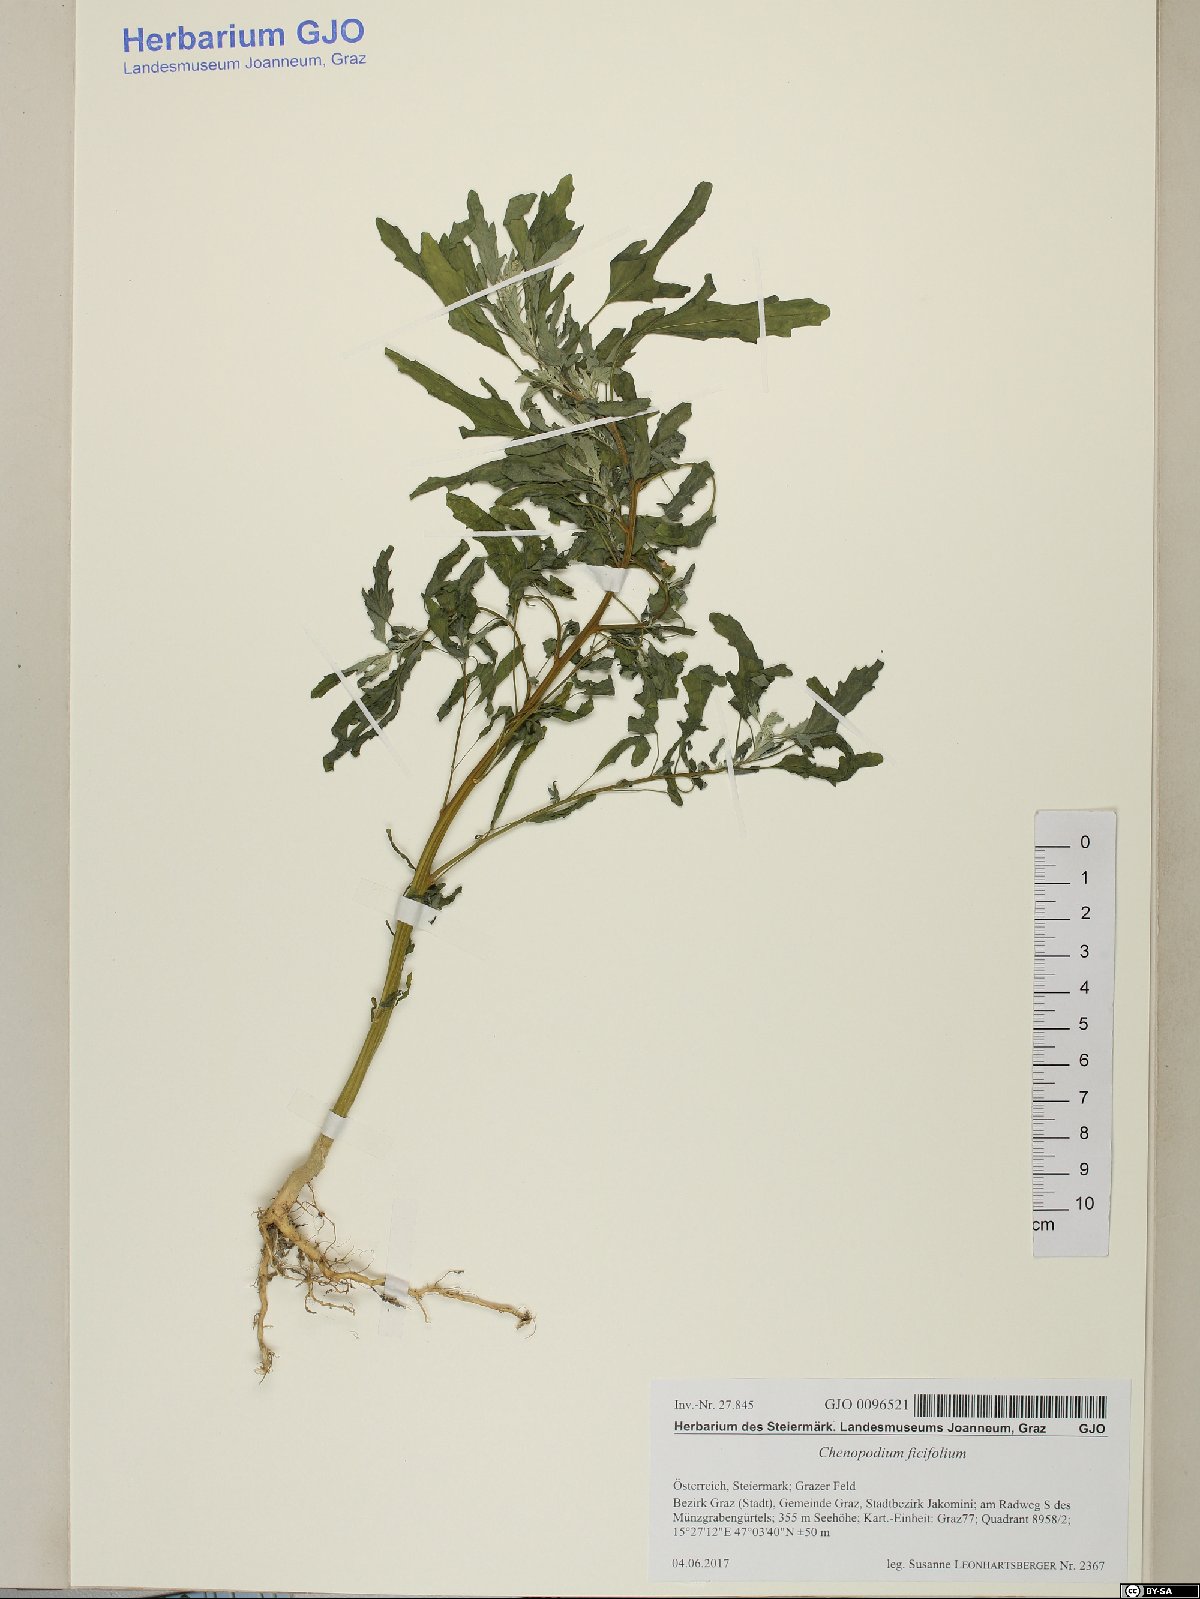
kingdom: Plantae
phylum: Tracheophyta
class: Magnoliopsida
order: Caryophyllales
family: Amaranthaceae
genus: Chenopodium
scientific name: Chenopodium ficifolium
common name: Fig-leaved goosefoot
